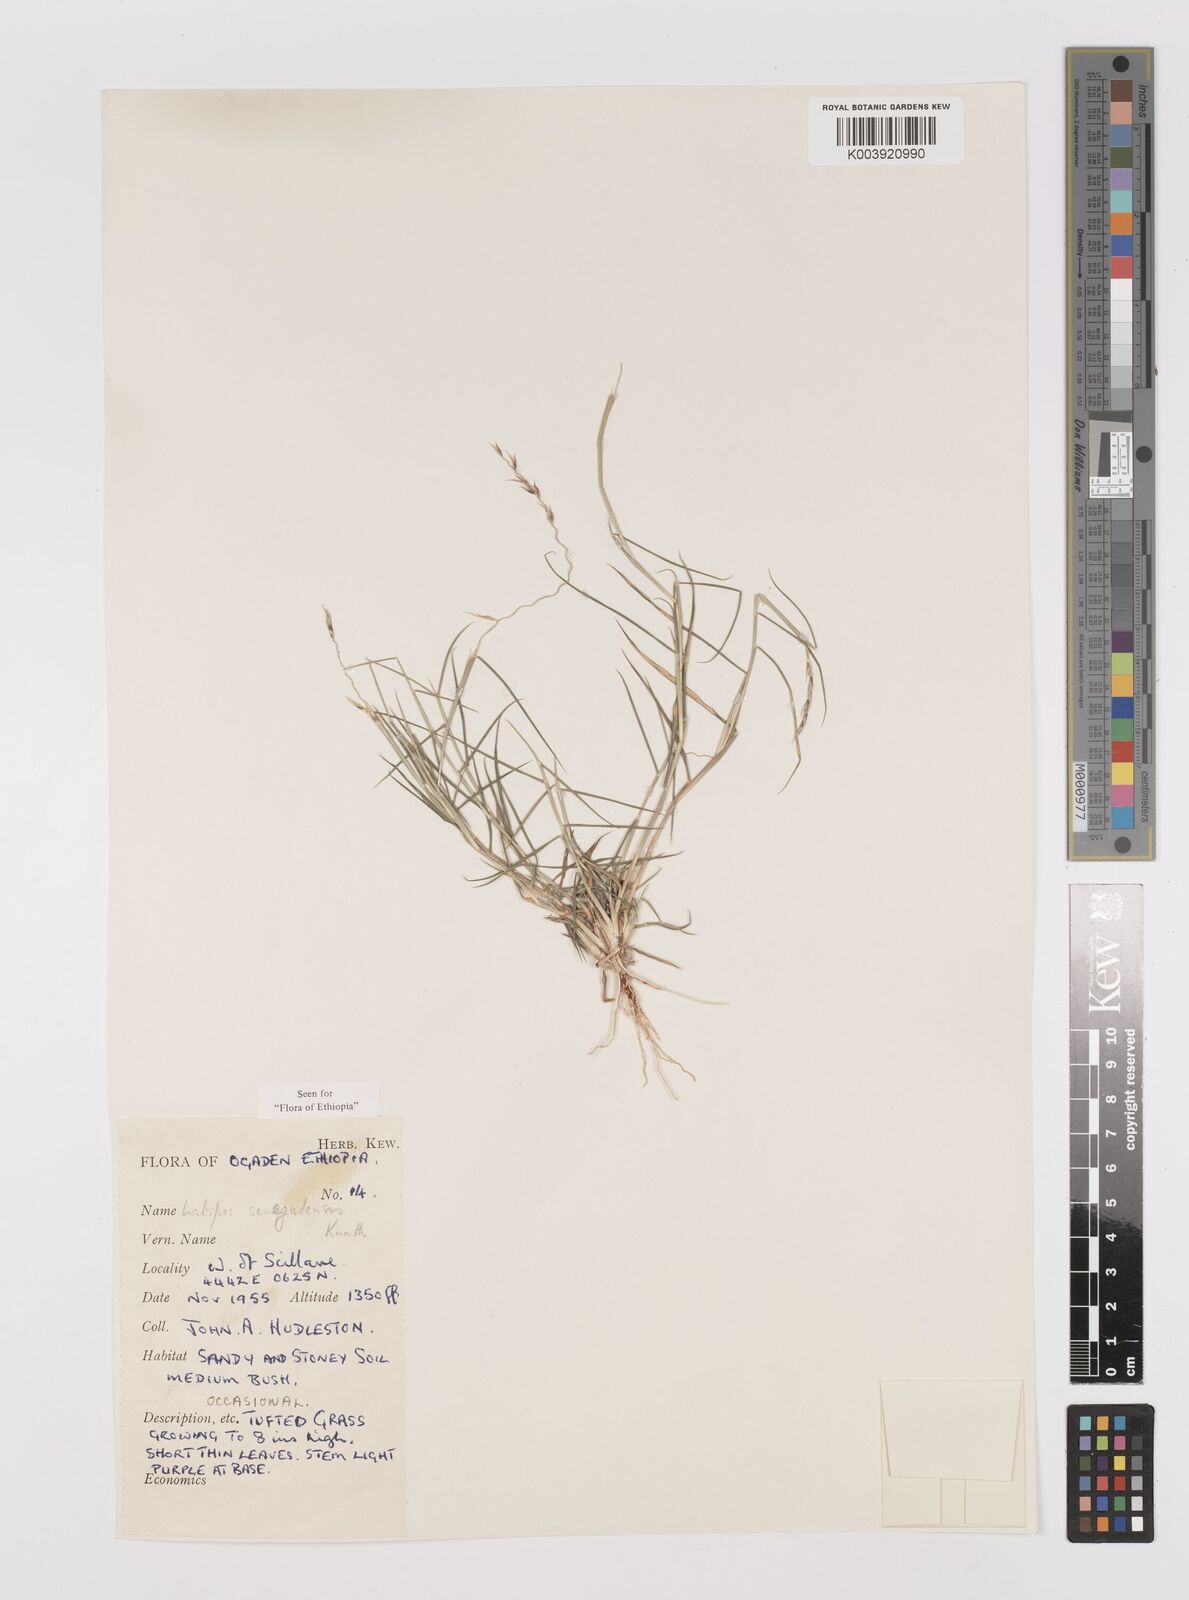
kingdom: Plantae
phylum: Tracheophyta
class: Liliopsida
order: Poales
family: Poaceae
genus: Leptothrium
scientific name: Leptothrium senegalense
